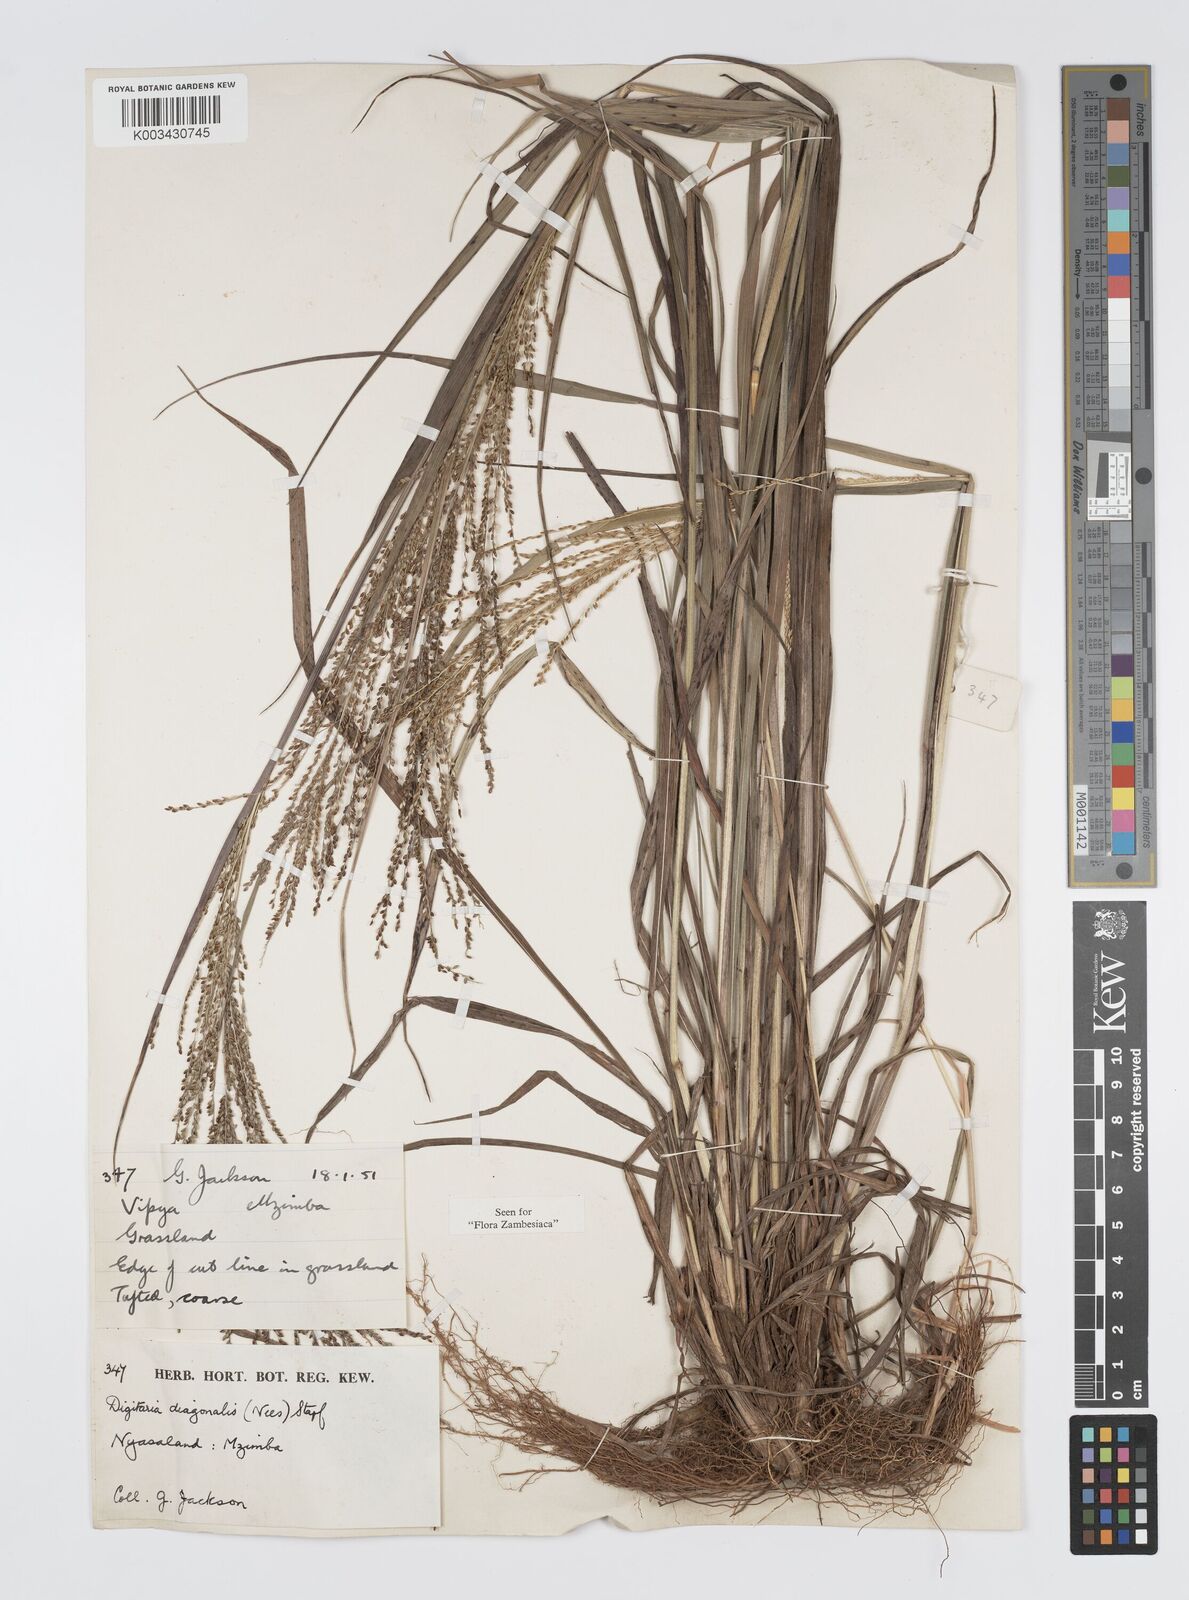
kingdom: Plantae
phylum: Tracheophyta
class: Liliopsida
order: Poales
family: Poaceae
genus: Digitaria
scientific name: Digitaria diagonalis
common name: Brown-seed finger grass
